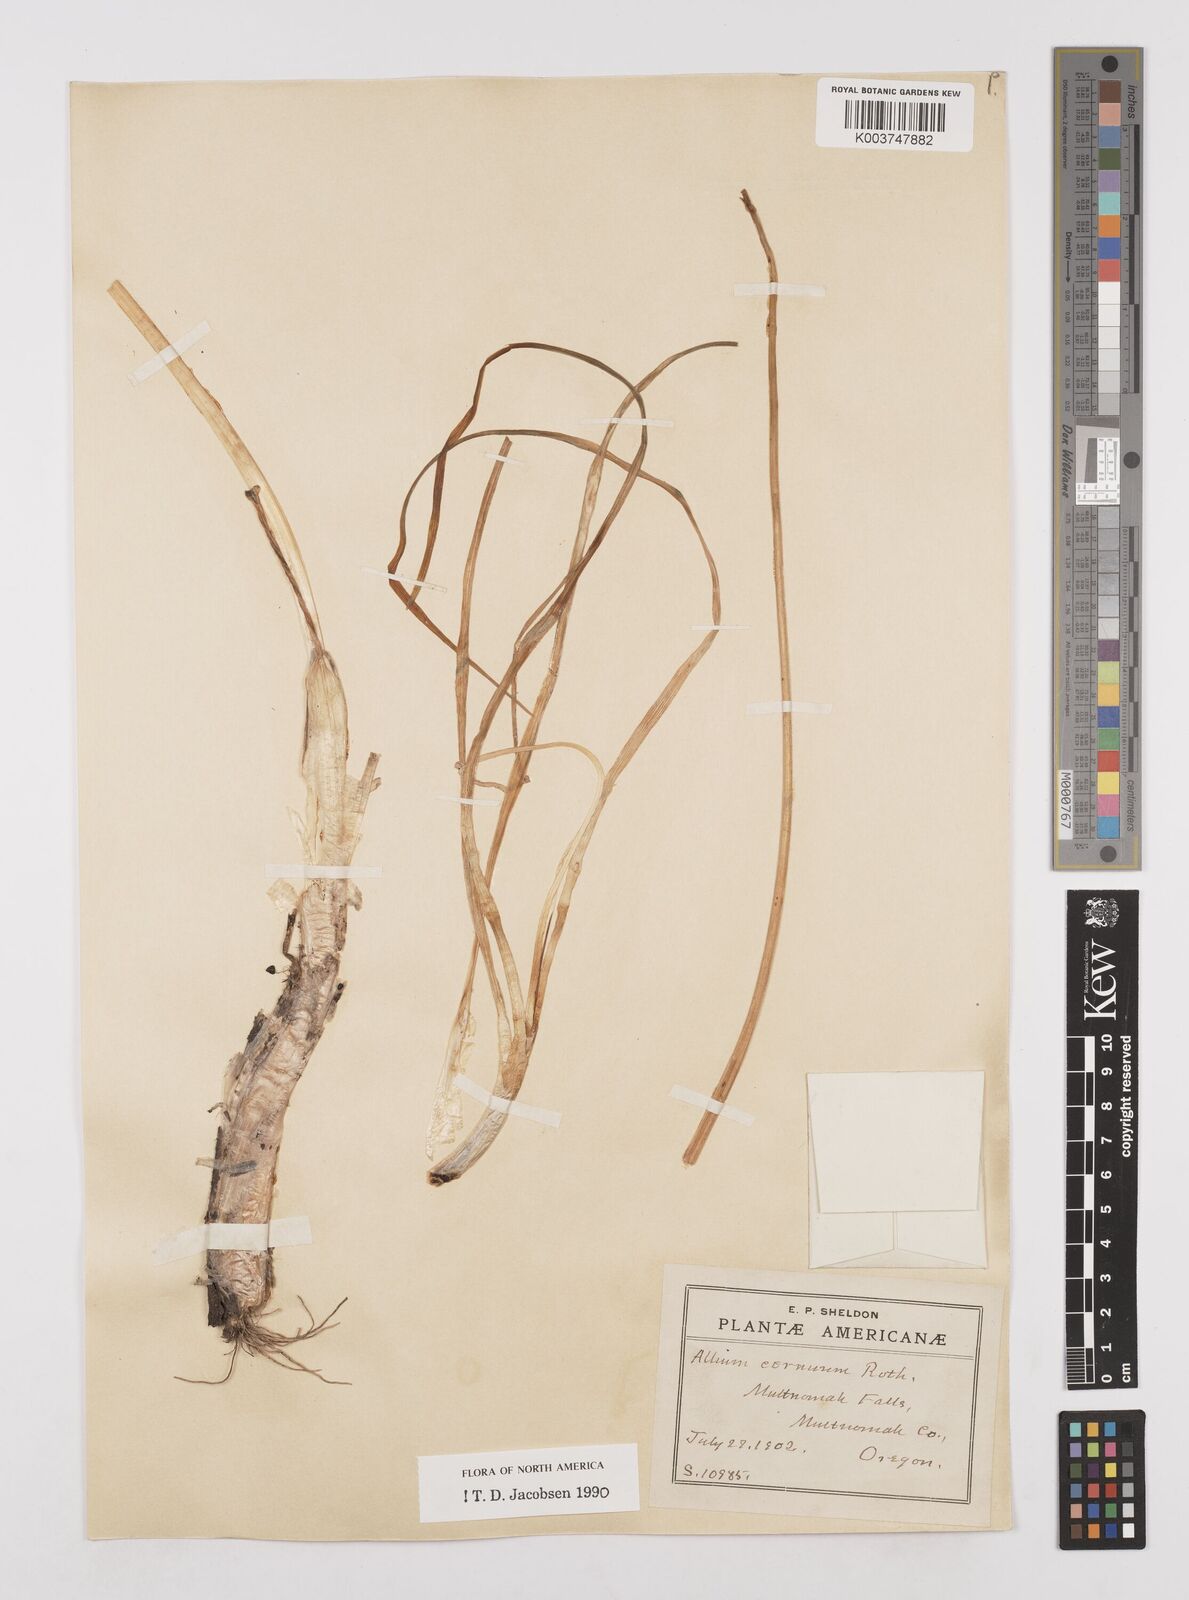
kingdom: Plantae
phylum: Tracheophyta
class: Liliopsida
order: Asparagales
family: Amaryllidaceae
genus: Allium
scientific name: Allium cernuum
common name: Nodding onion
